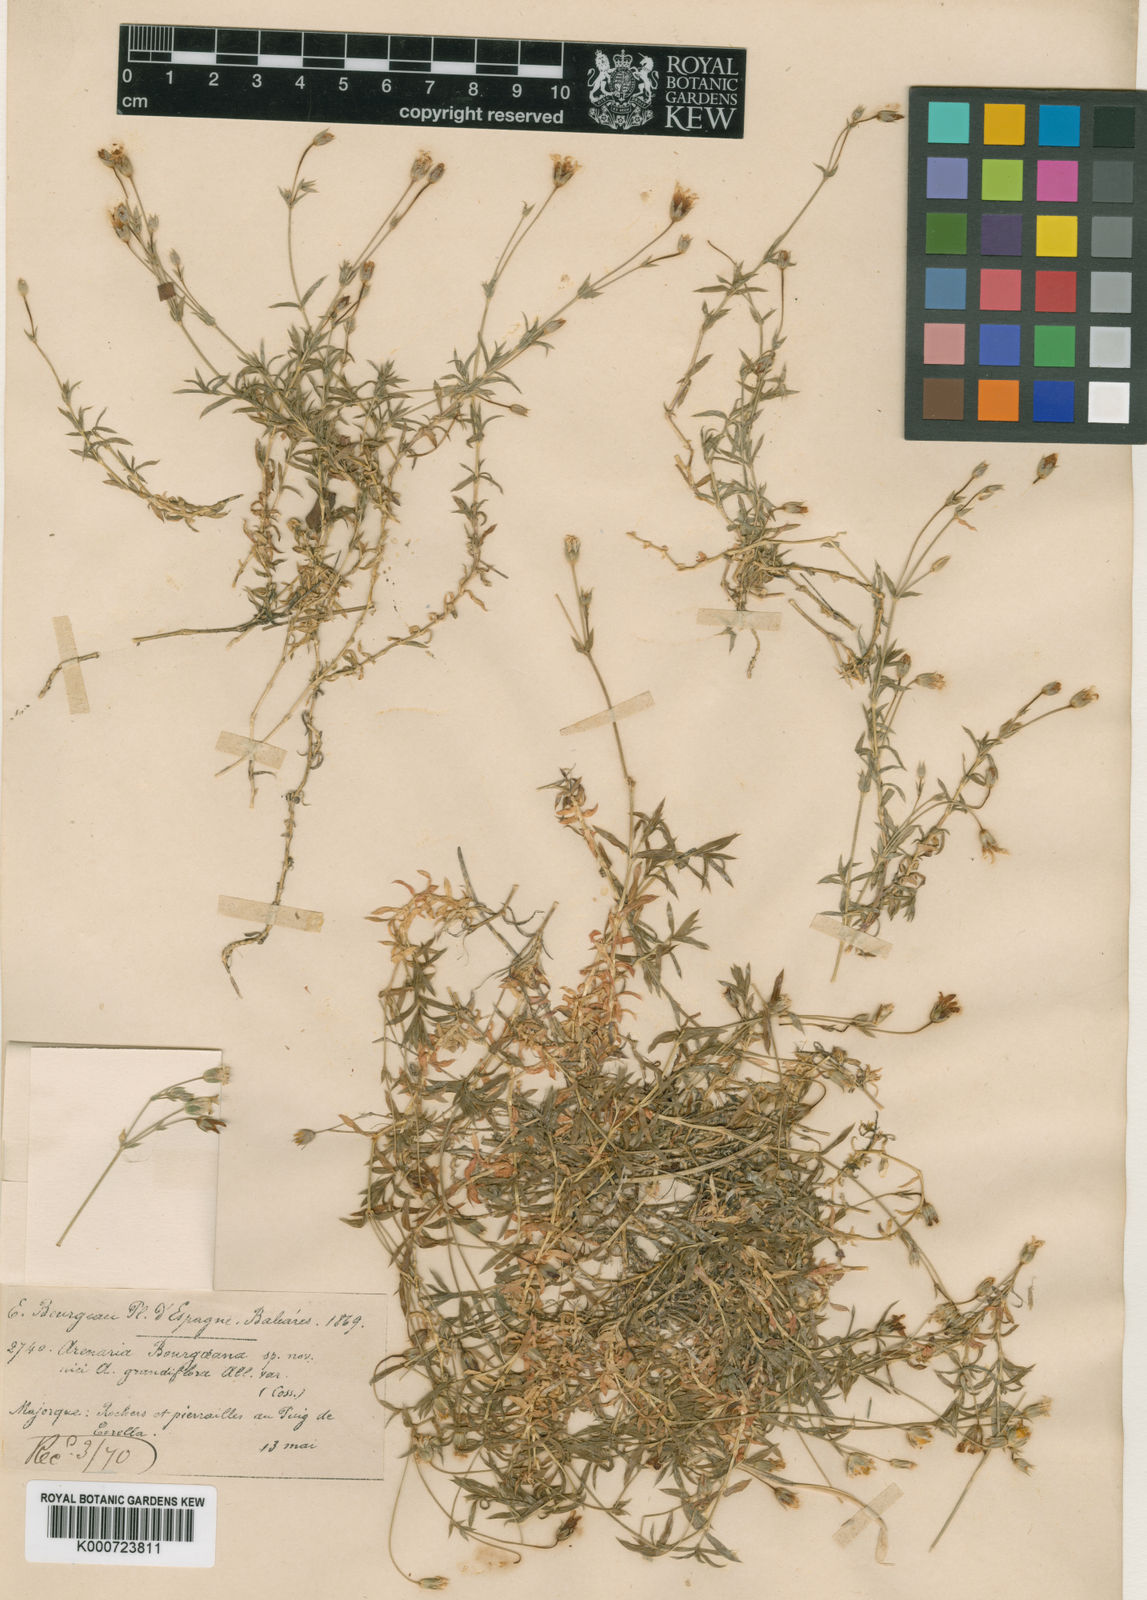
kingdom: Plantae
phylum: Tracheophyta
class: Magnoliopsida
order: Caryophyllales
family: Caryophyllaceae
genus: Arenaria
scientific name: Arenaria grandiflora
